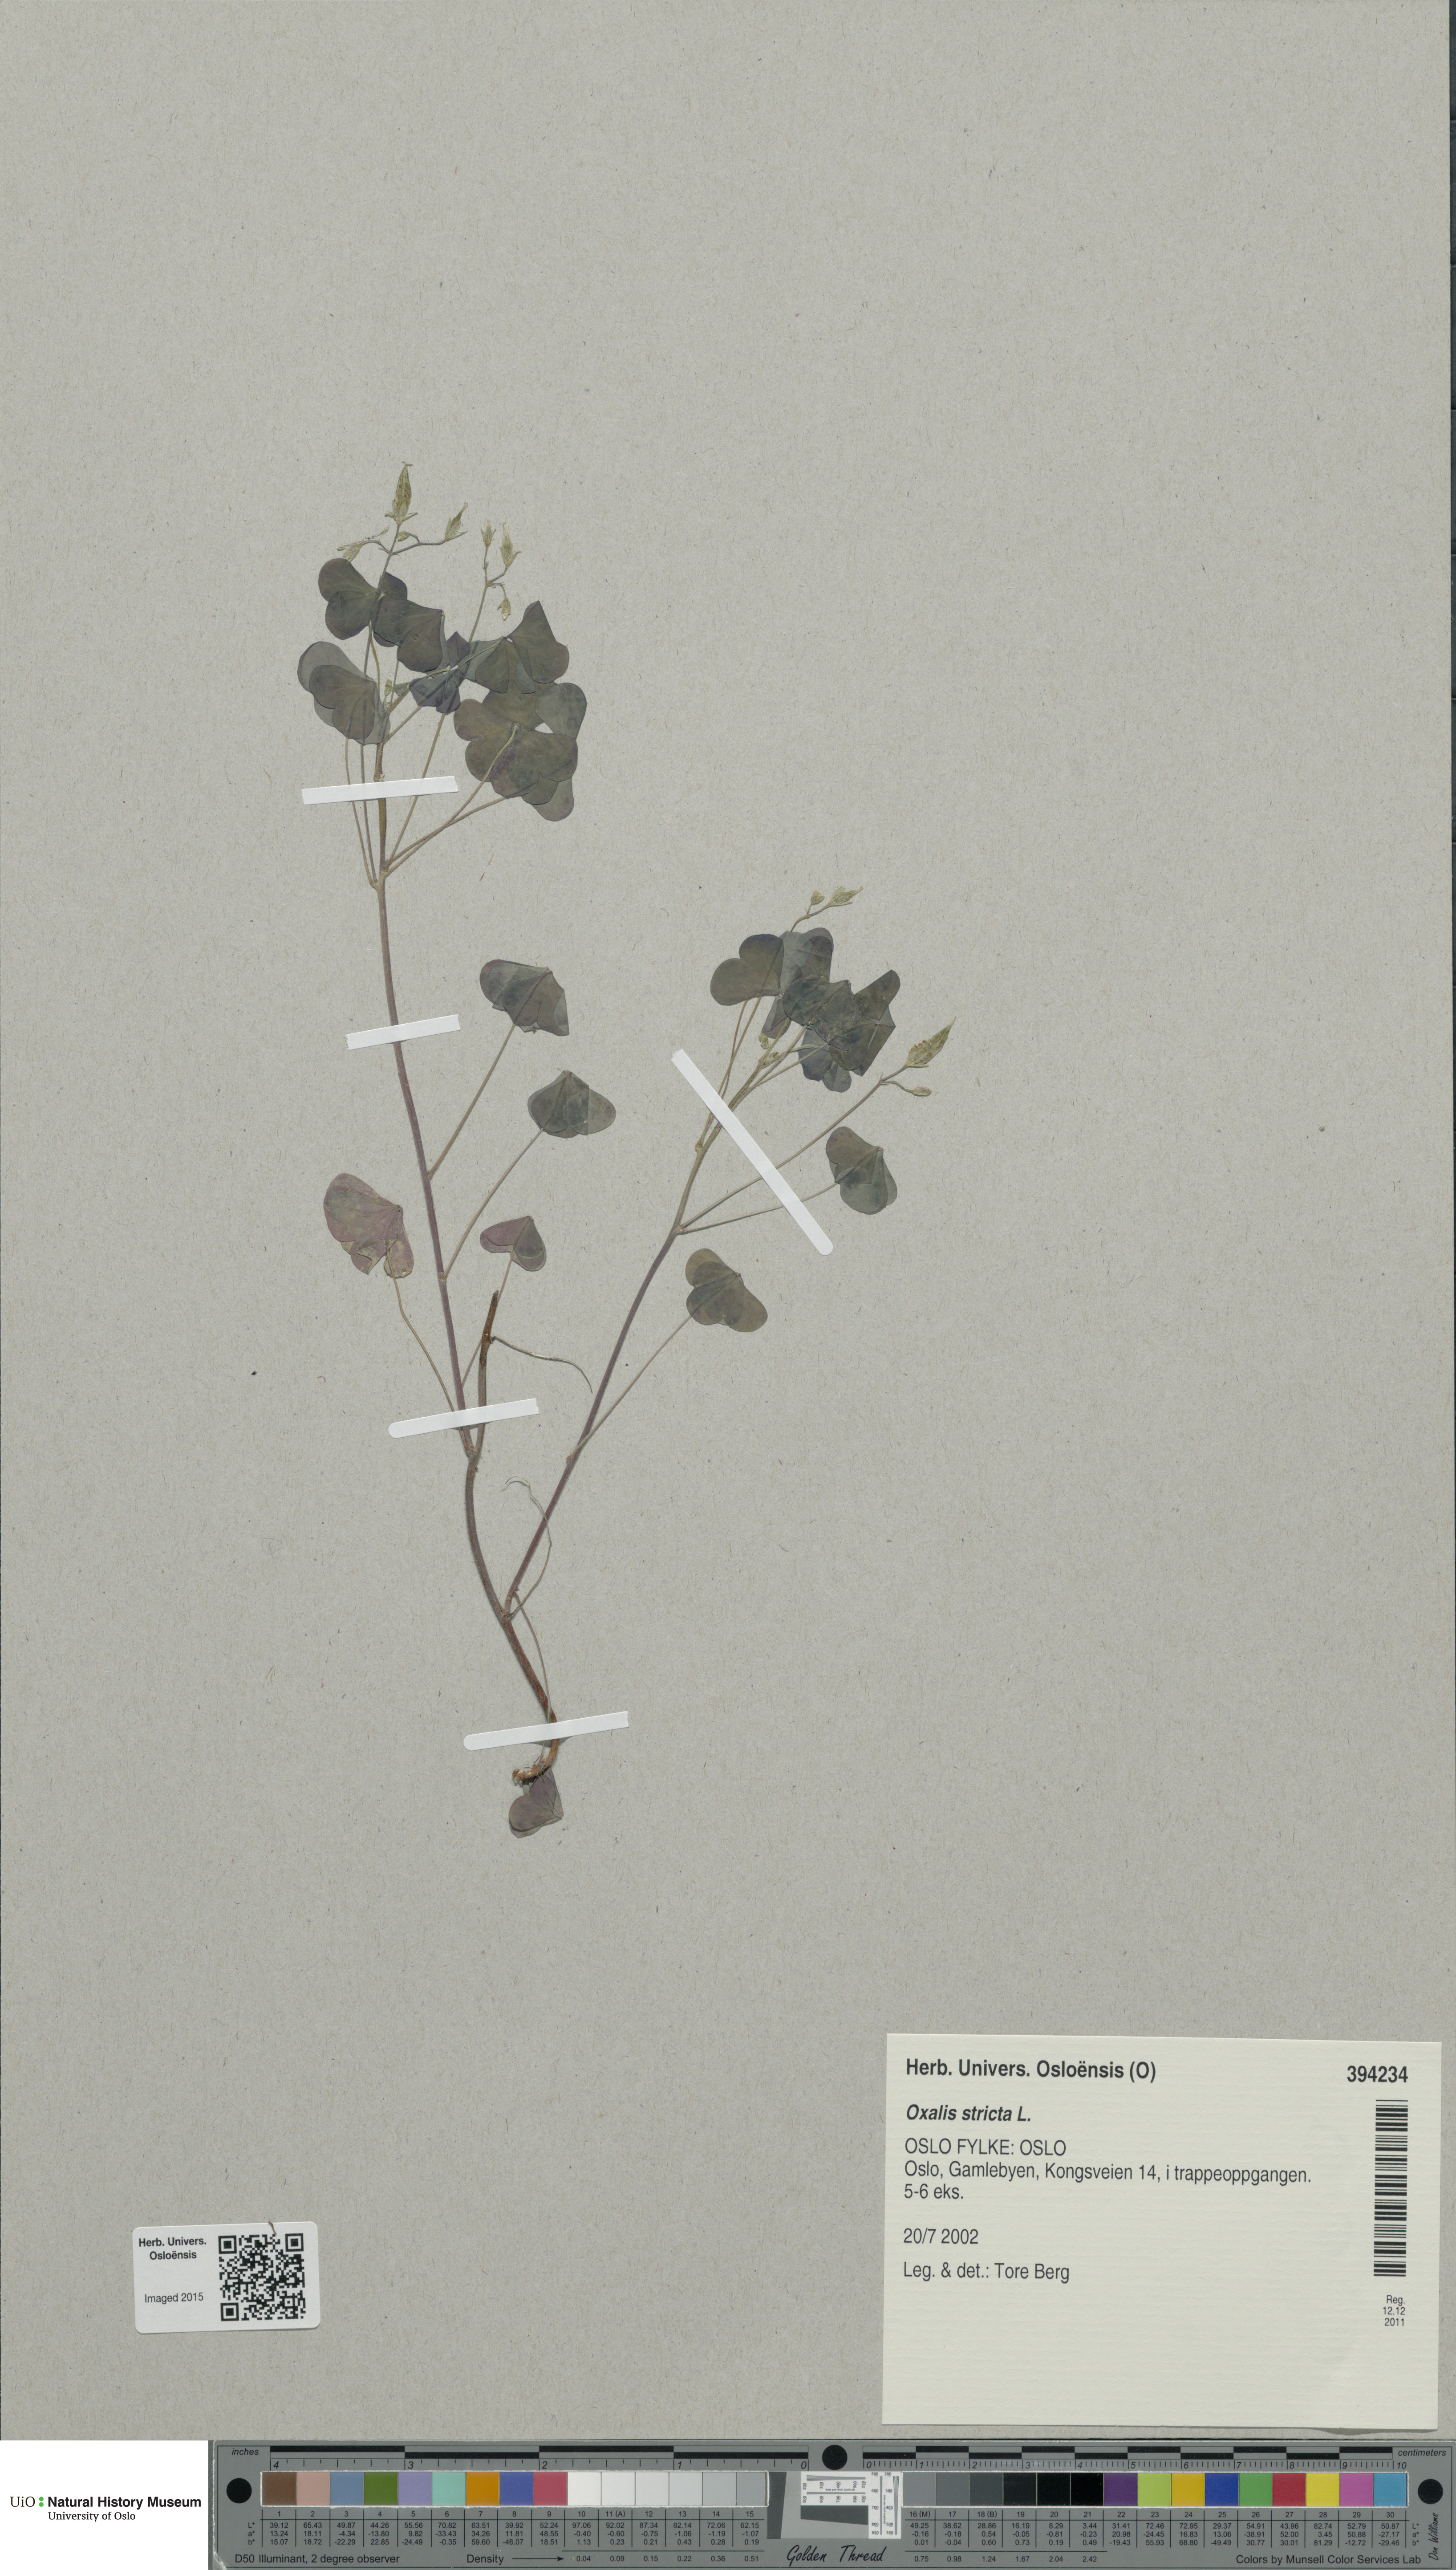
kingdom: Plantae
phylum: Tracheophyta
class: Magnoliopsida
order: Oxalidales
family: Oxalidaceae
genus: Oxalis
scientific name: Oxalis dillenii
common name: Sussex yellow-sorrel
